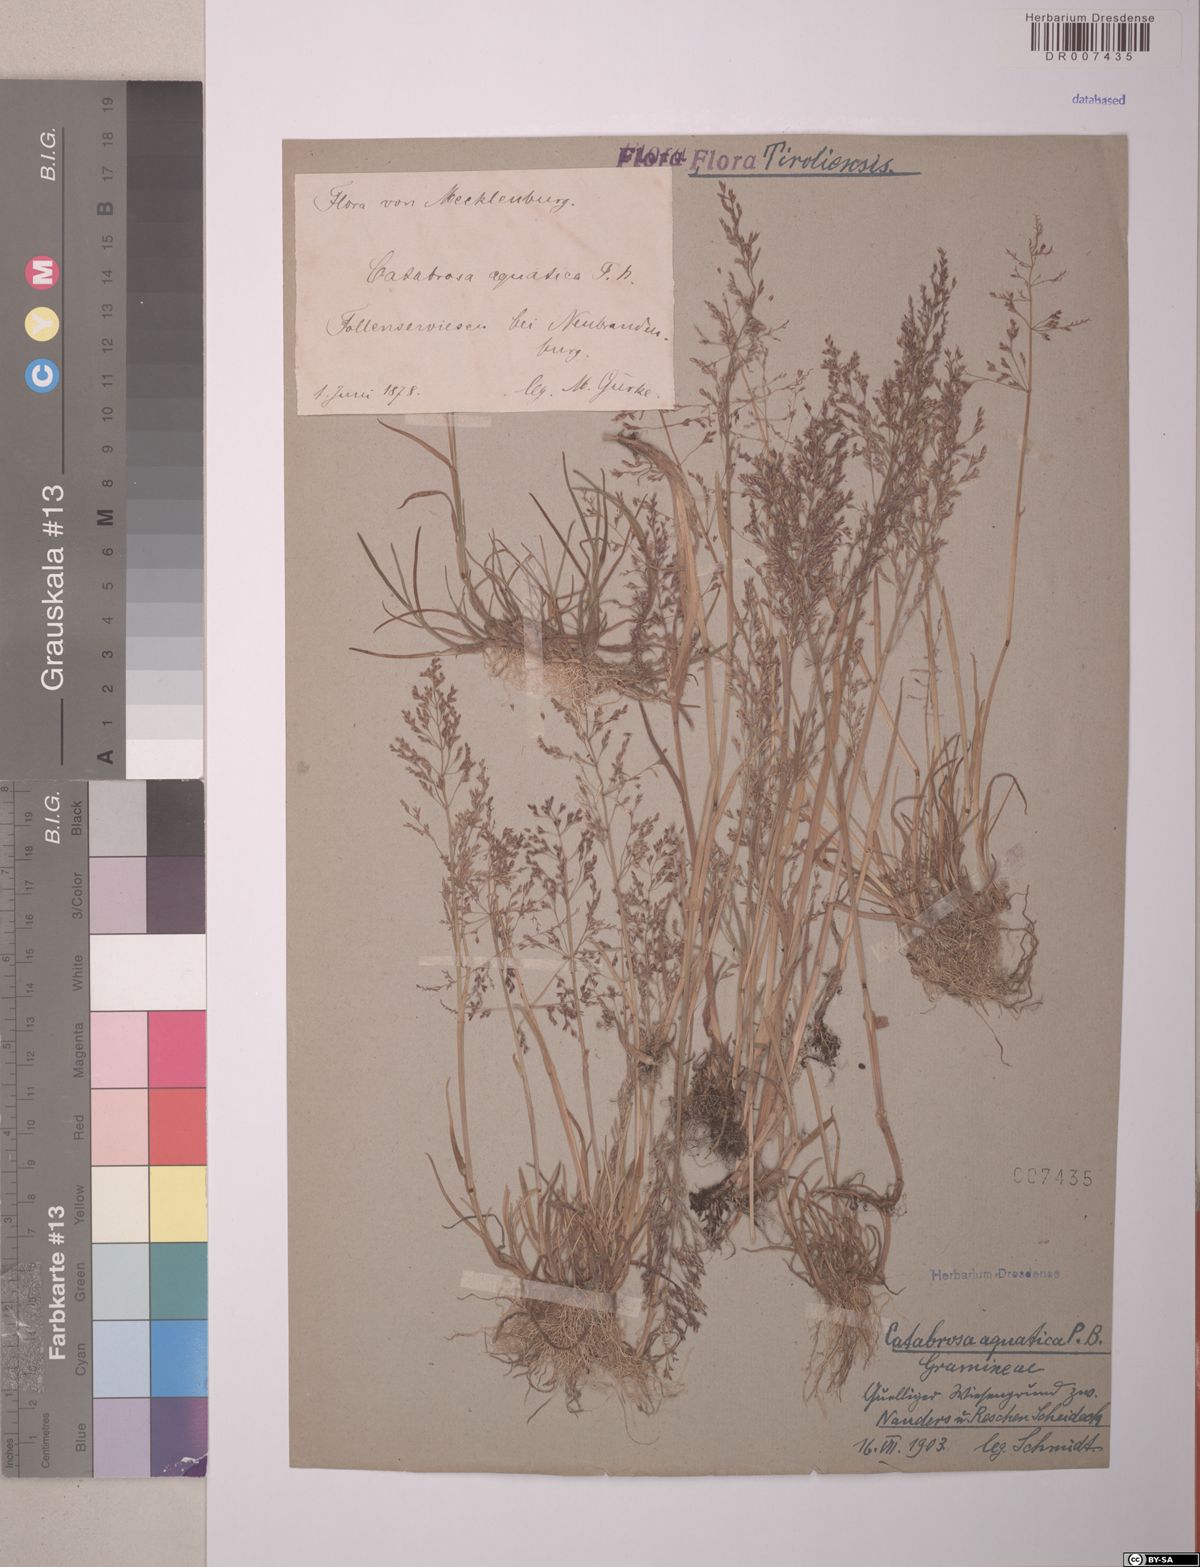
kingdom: Plantae
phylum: Tracheophyta
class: Liliopsida
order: Poales
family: Poaceae
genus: Catabrosa
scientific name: Catabrosa aquatica
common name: Whorl-grass
